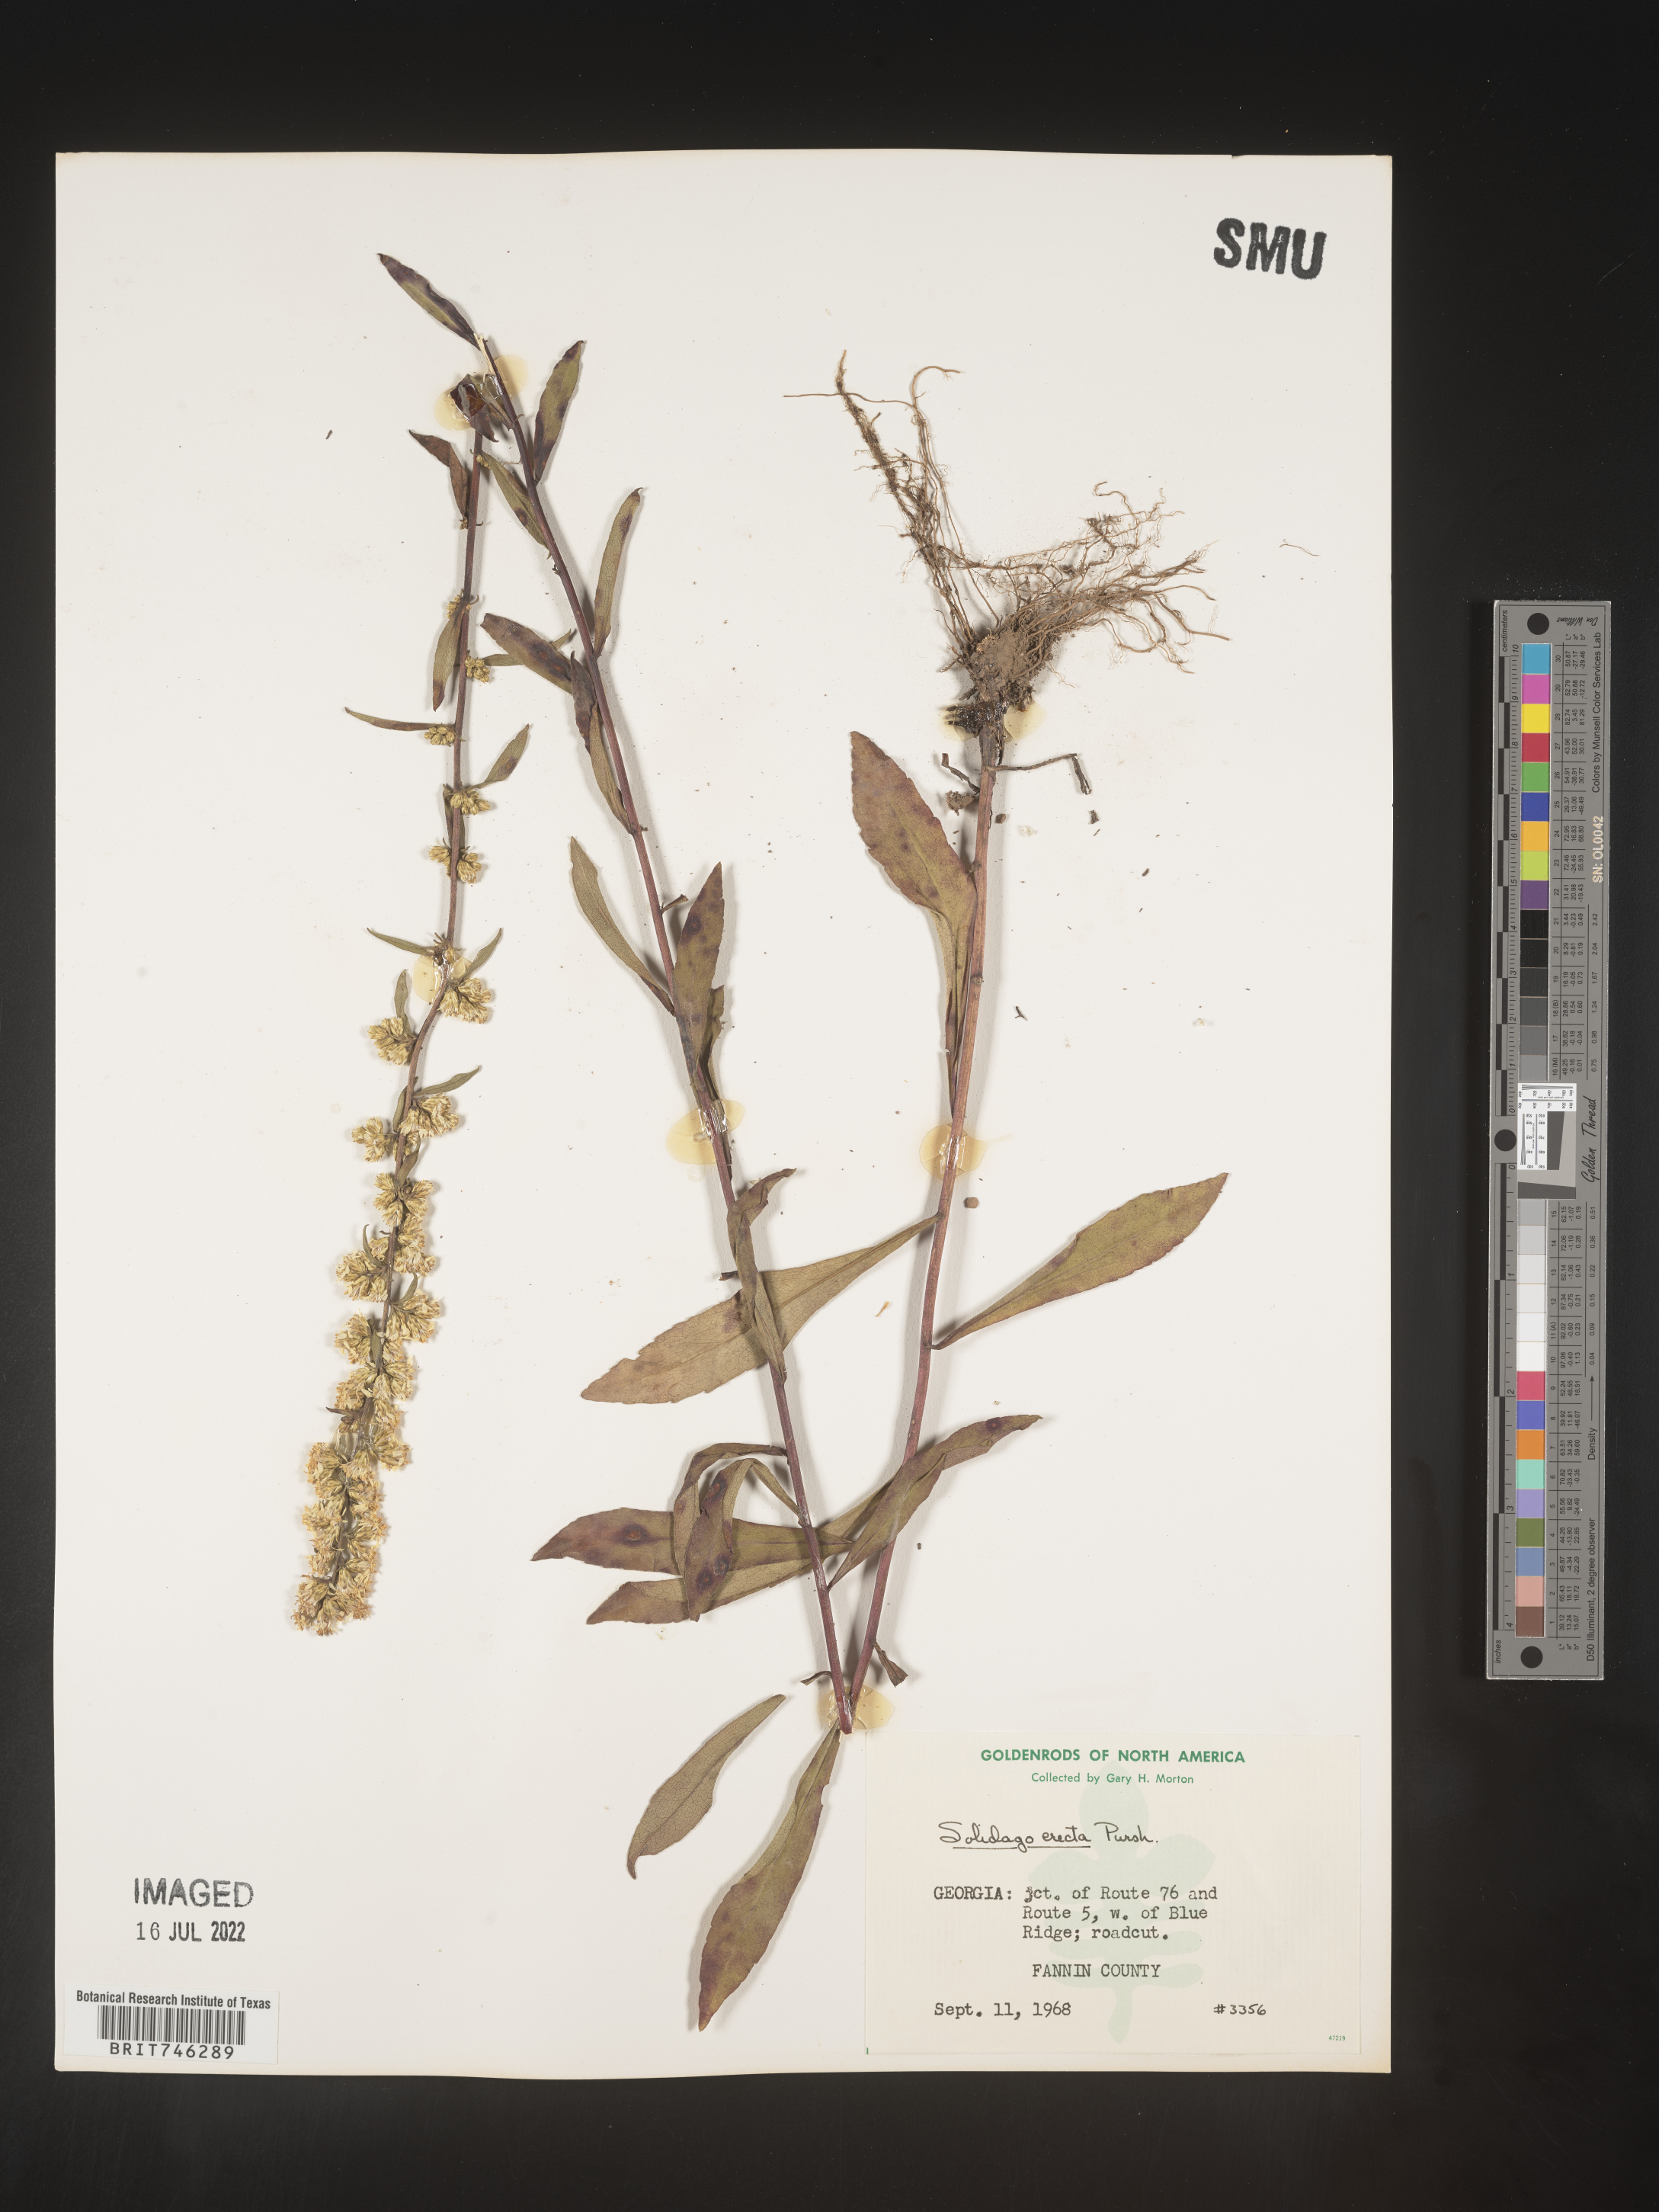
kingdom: Plantae
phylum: Tracheophyta
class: Magnoliopsida
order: Asterales
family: Asteraceae
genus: Solidago
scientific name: Solidago erecta
